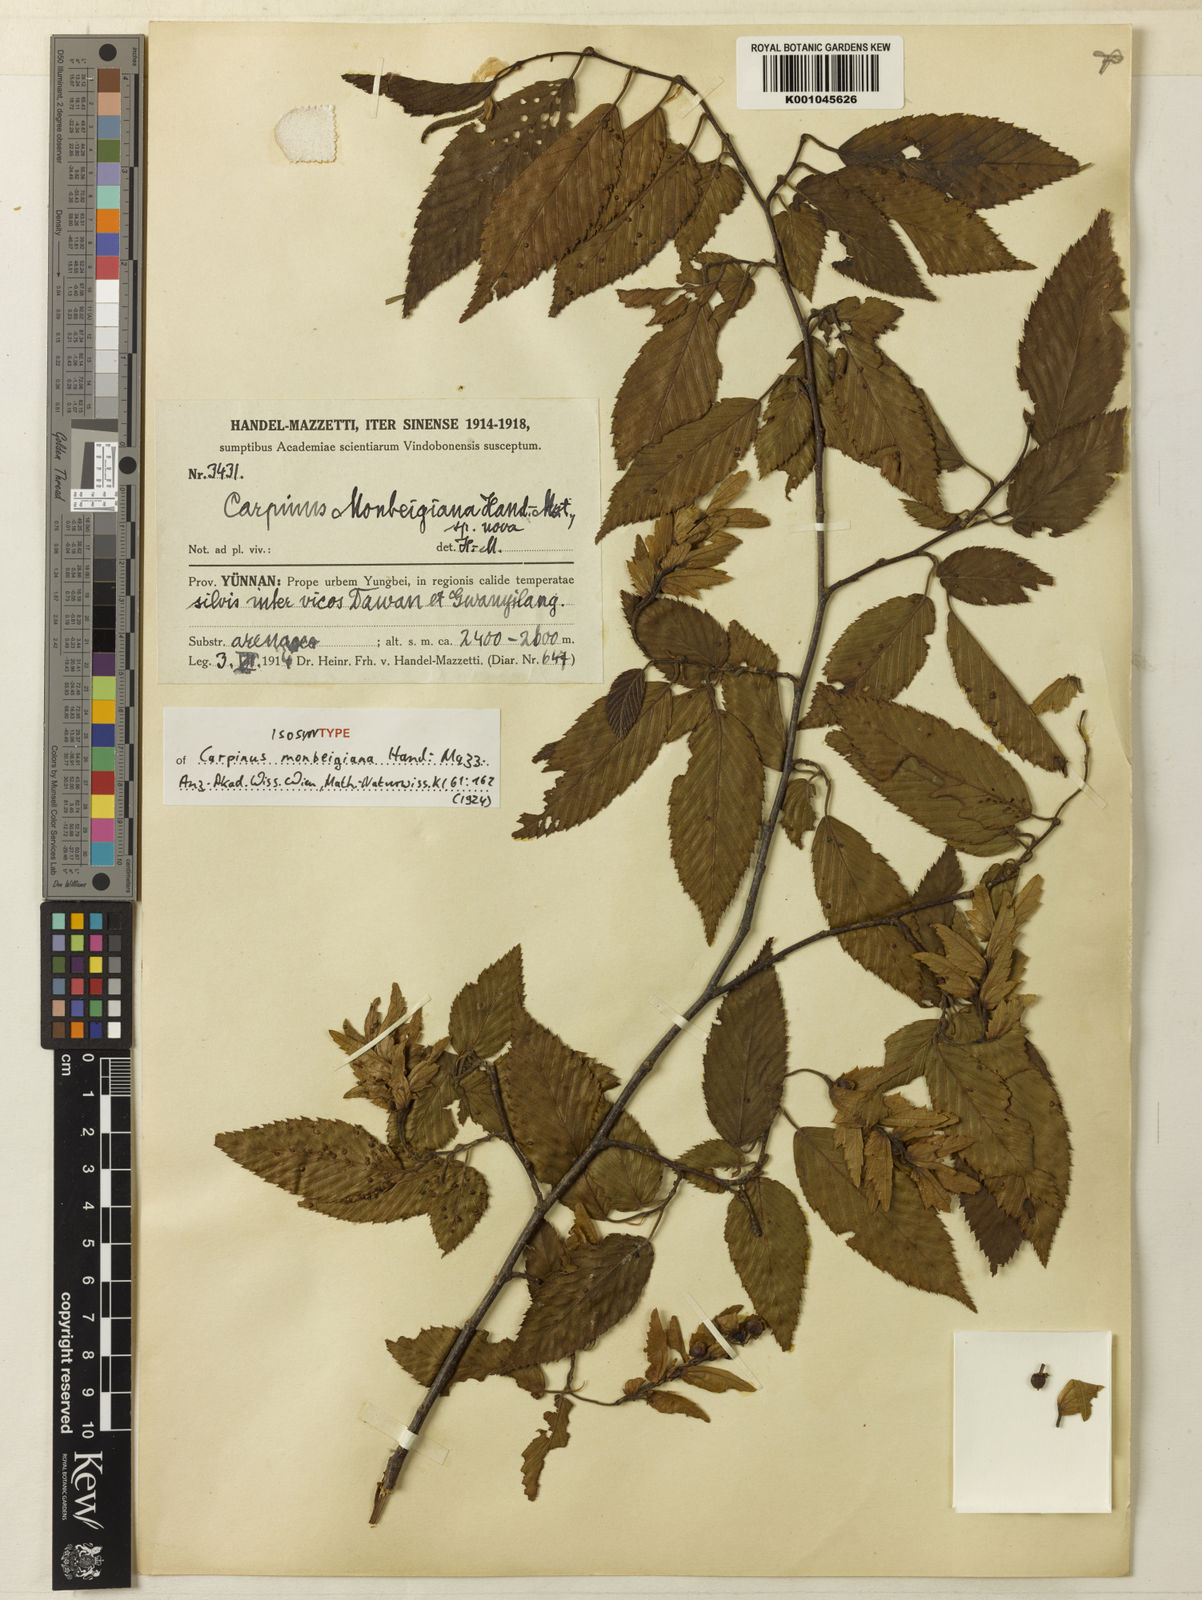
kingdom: Plantae
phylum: Tracheophyta
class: Magnoliopsida
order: Fagales
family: Betulaceae
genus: Carpinus
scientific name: Carpinus monbeigiana
